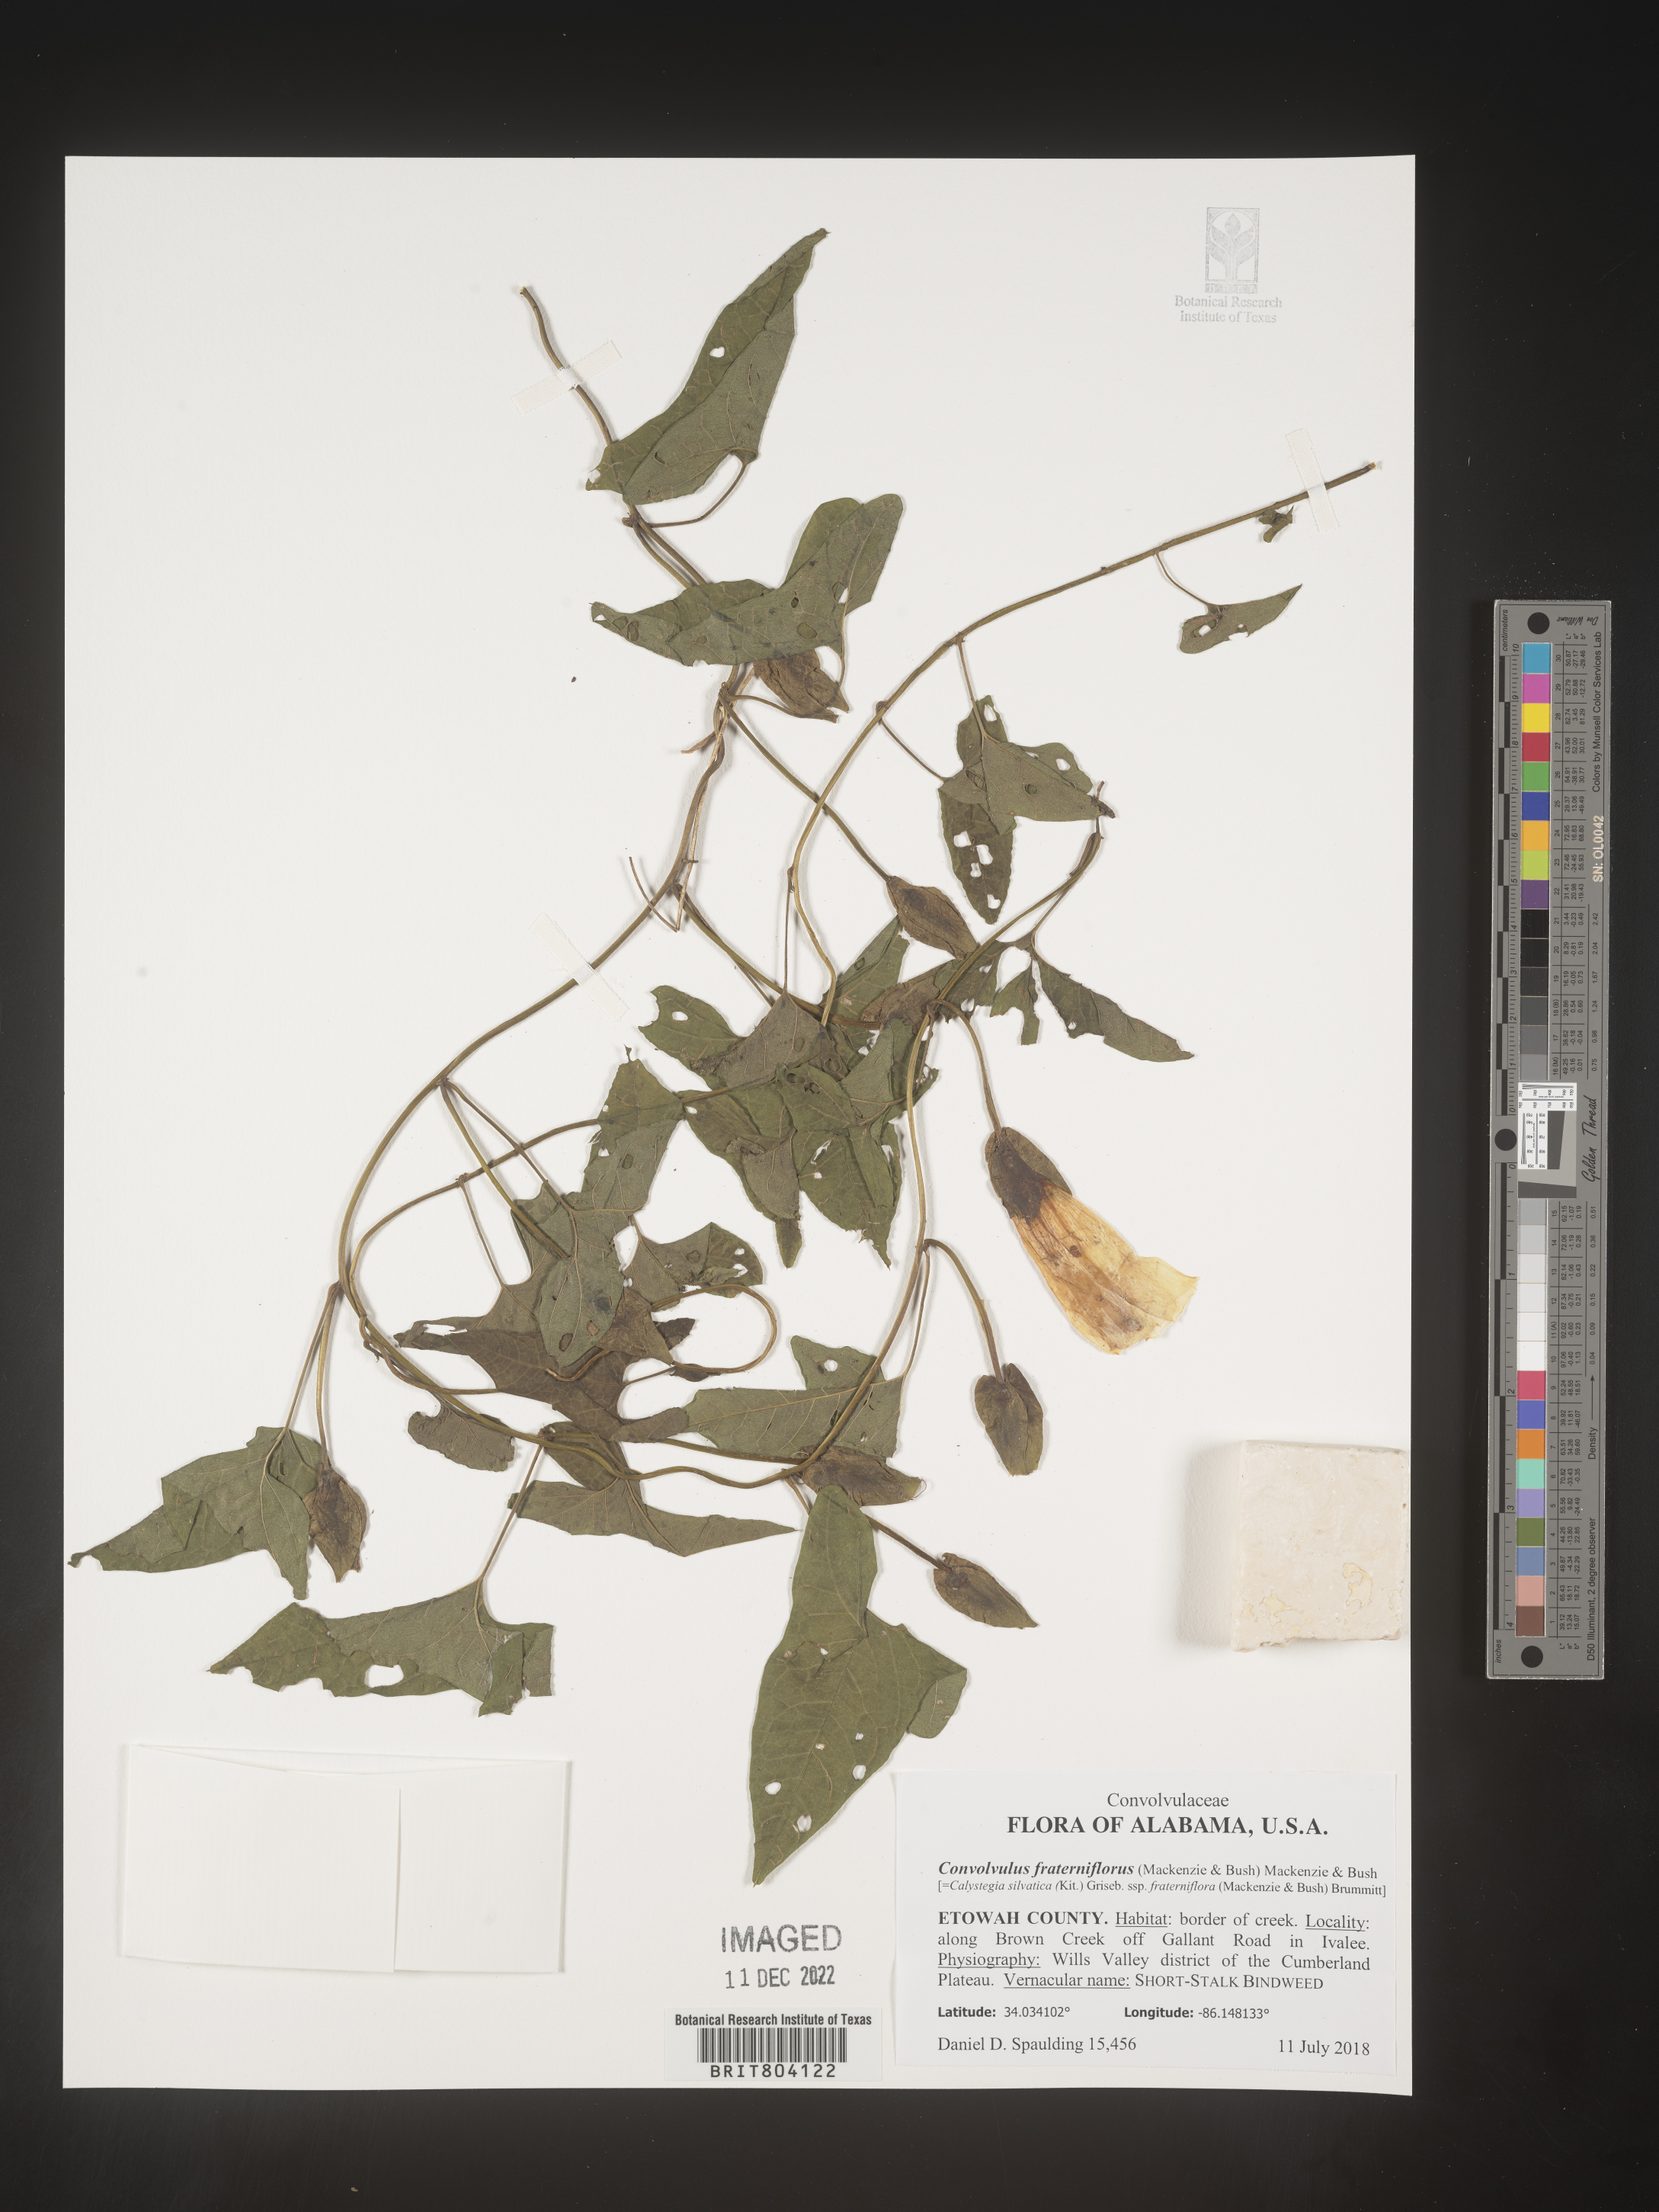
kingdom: Plantae
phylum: Tracheophyta
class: Magnoliopsida
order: Solanales
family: Convolvulaceae
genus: Convolvulus
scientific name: Convolvulus
